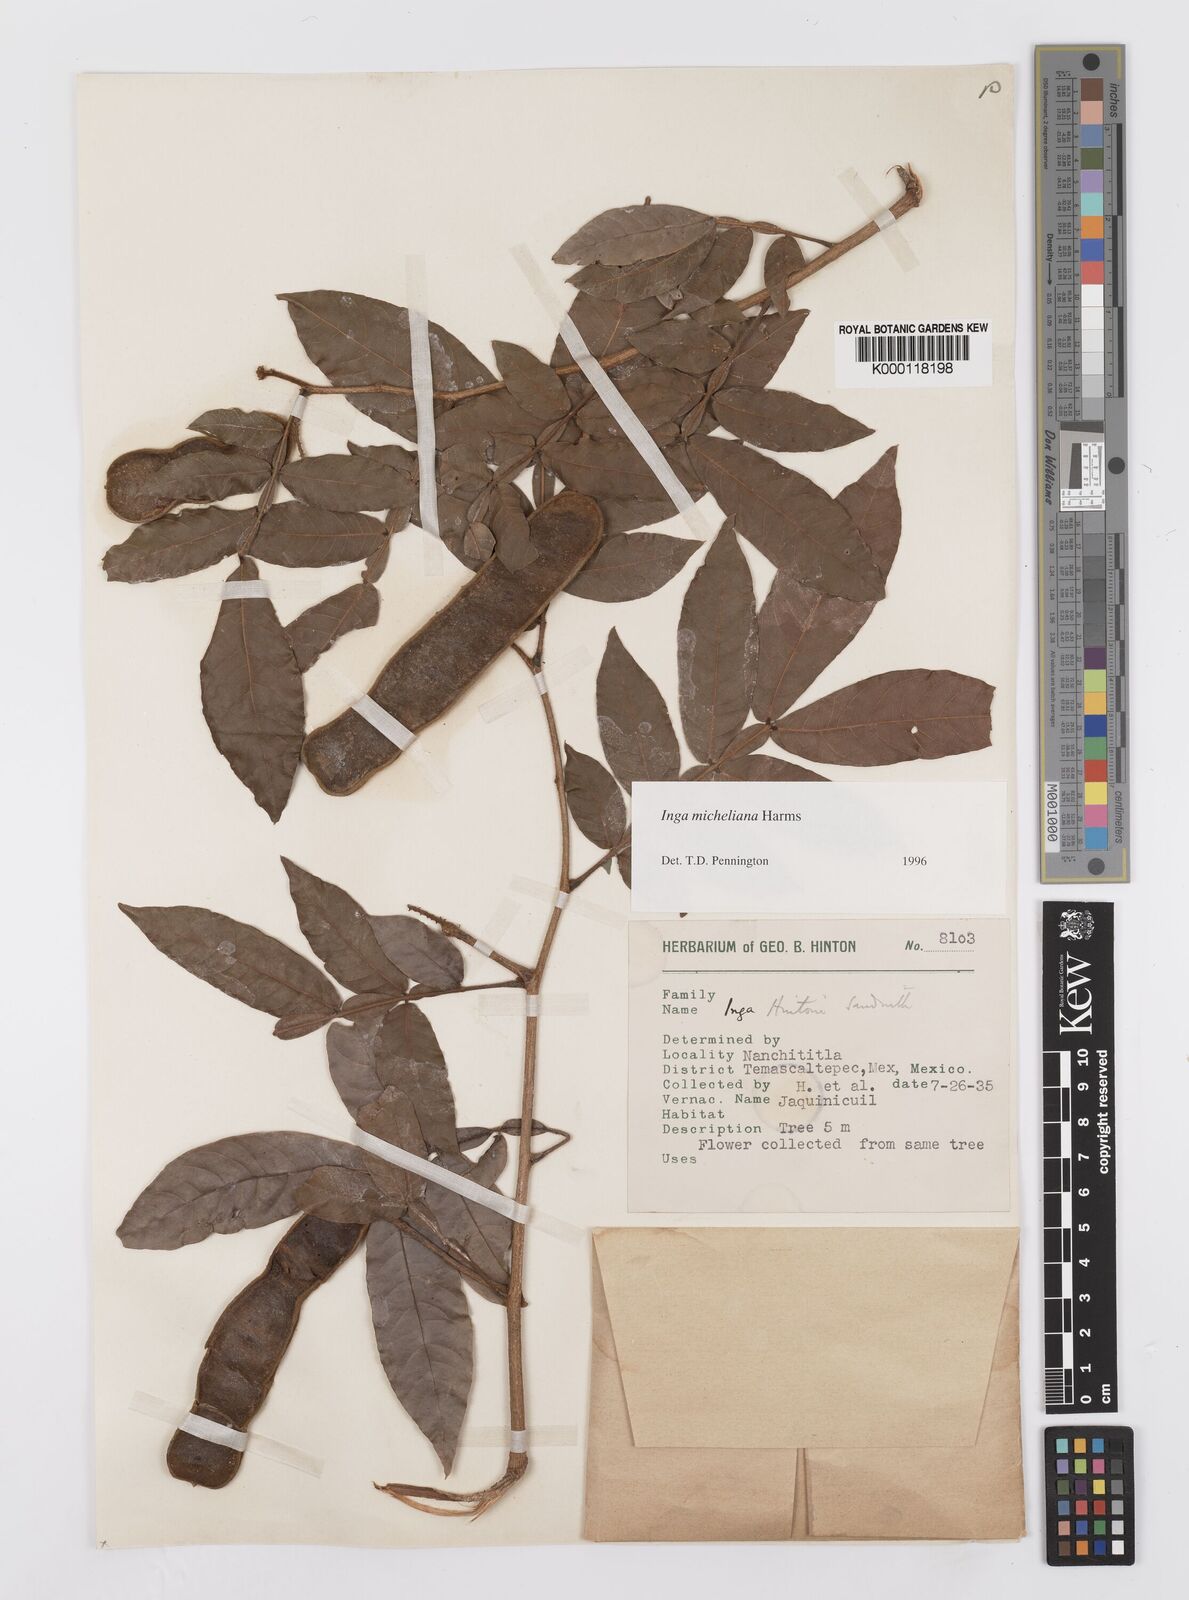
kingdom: Plantae
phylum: Tracheophyta
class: Magnoliopsida
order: Fabales
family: Fabaceae
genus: Inga
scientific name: Inga flexuosa
